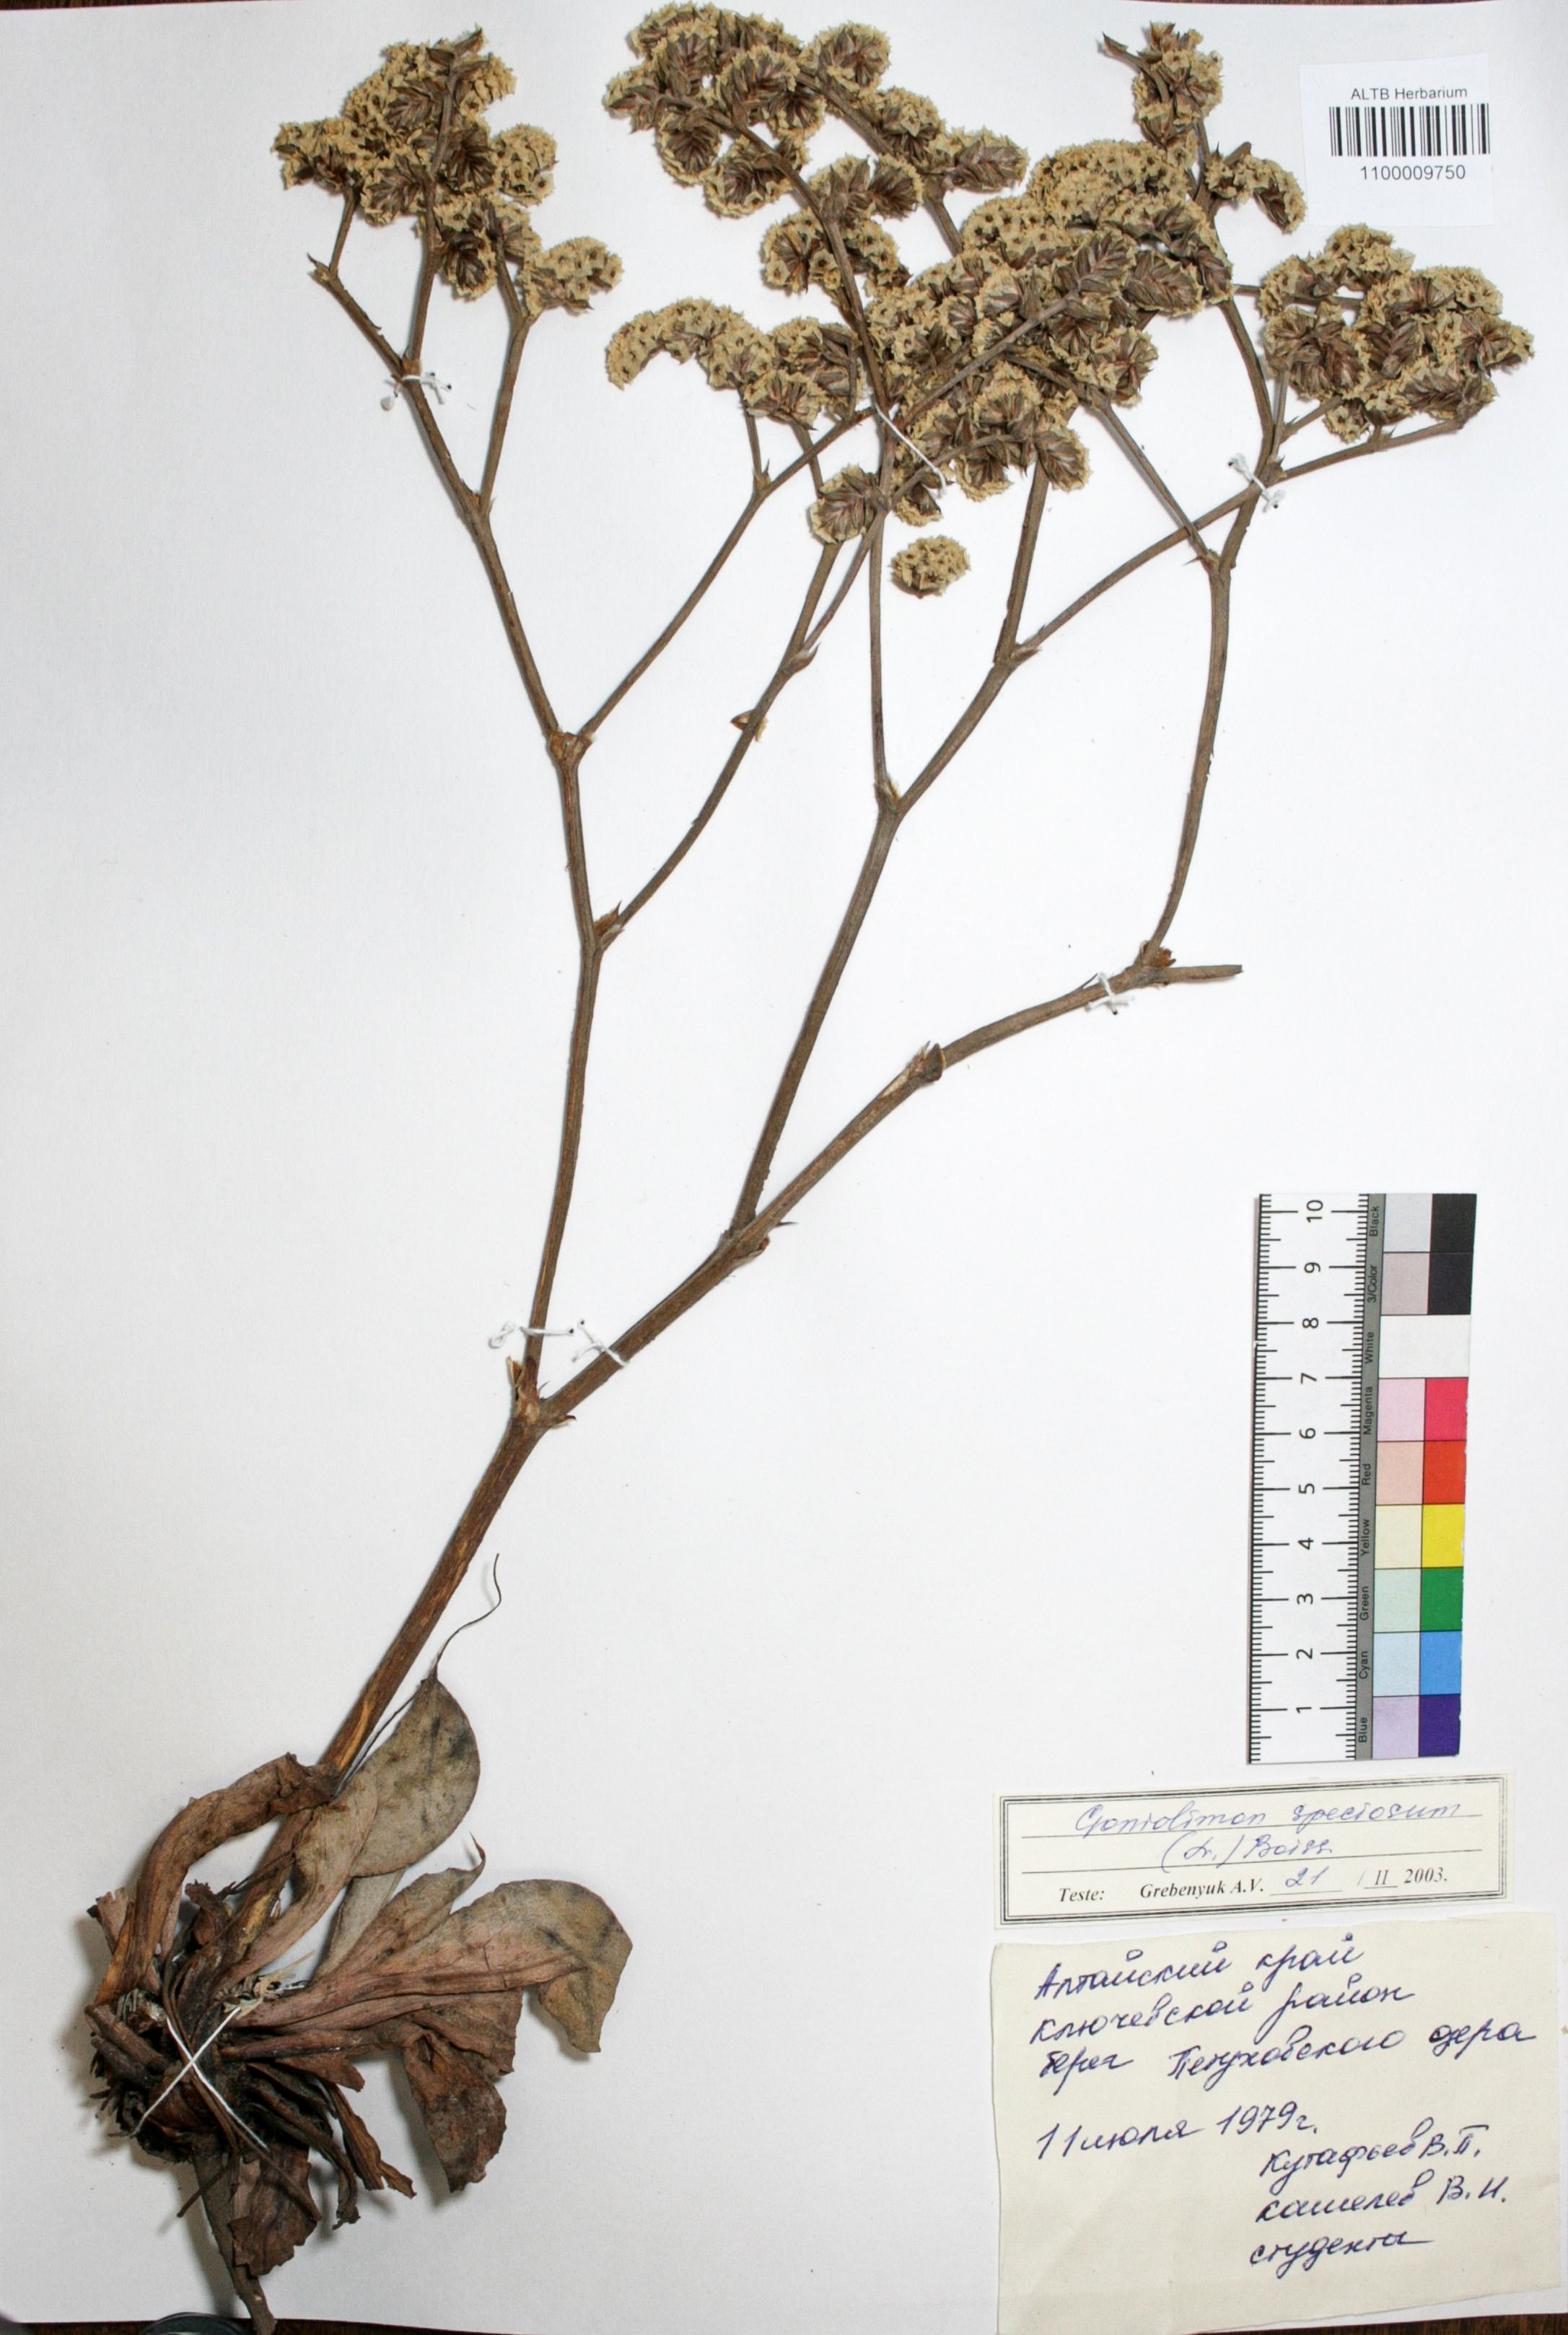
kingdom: Plantae
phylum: Tracheophyta
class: Magnoliopsida
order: Caryophyllales
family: Plumbaginaceae
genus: Goniolimon
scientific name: Goniolimon speciosum
